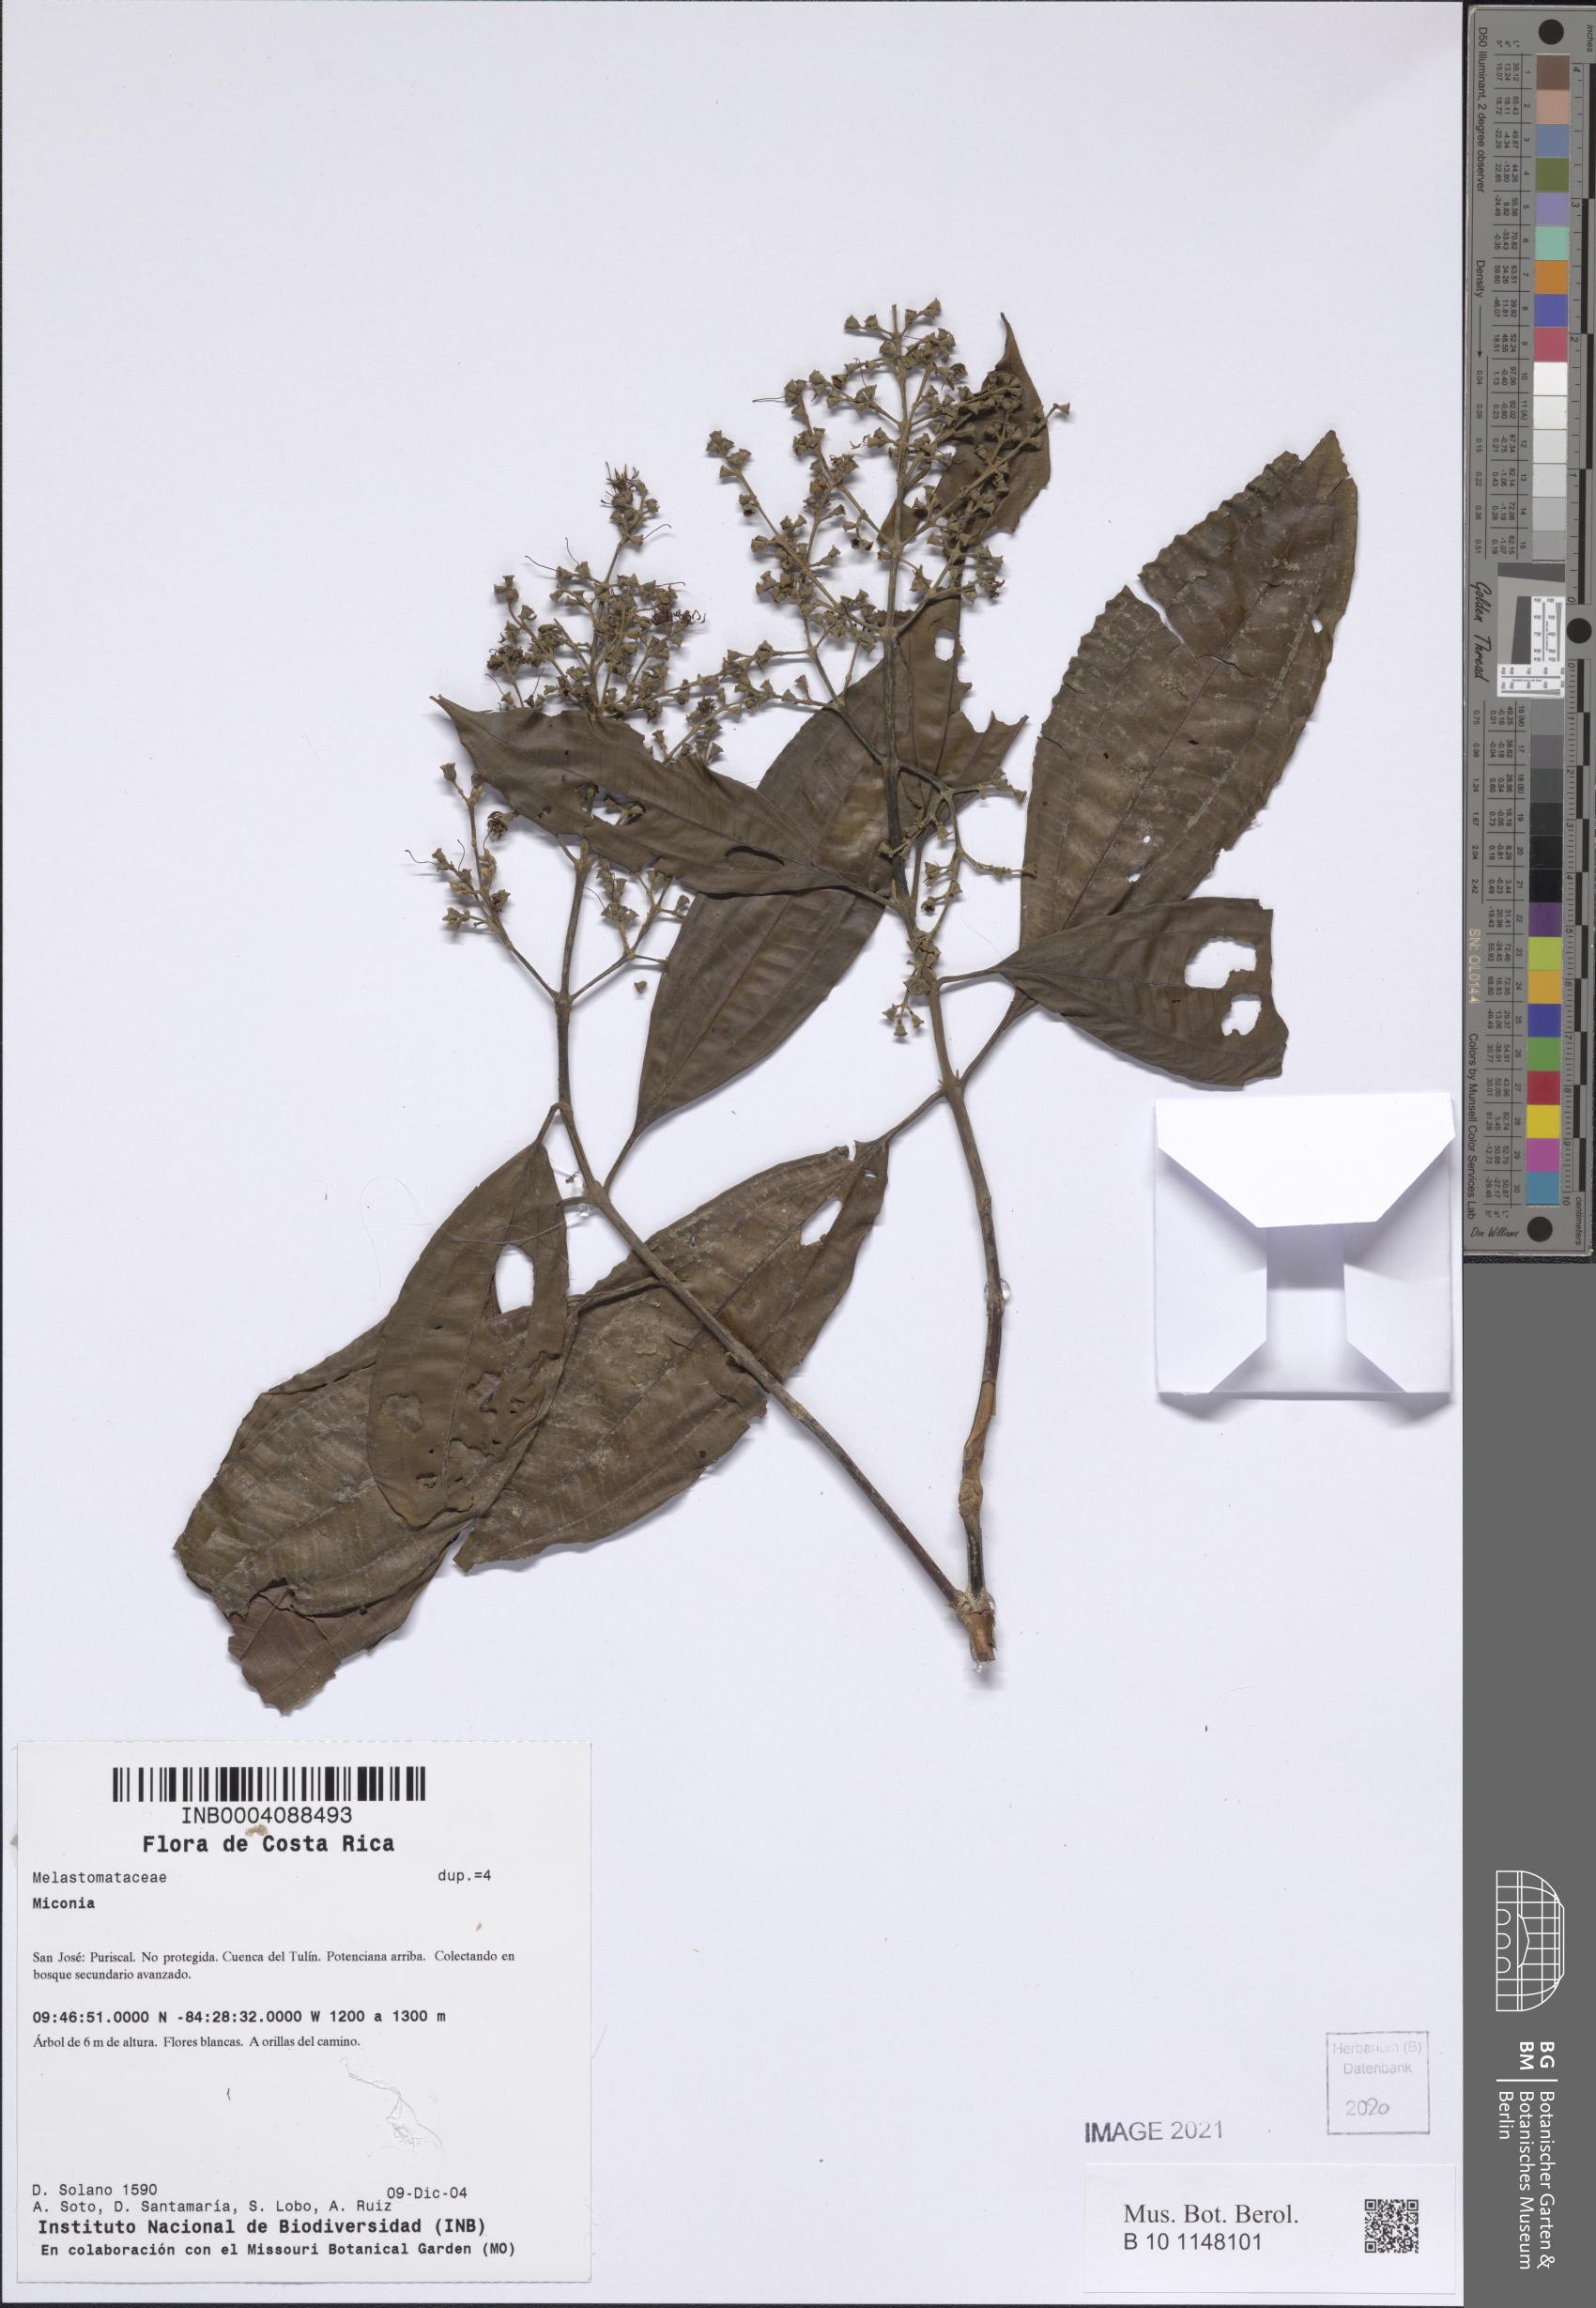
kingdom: Plantae
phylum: Tracheophyta
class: Magnoliopsida
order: Myrtales
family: Melastomataceae
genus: Miconia
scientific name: Miconia
